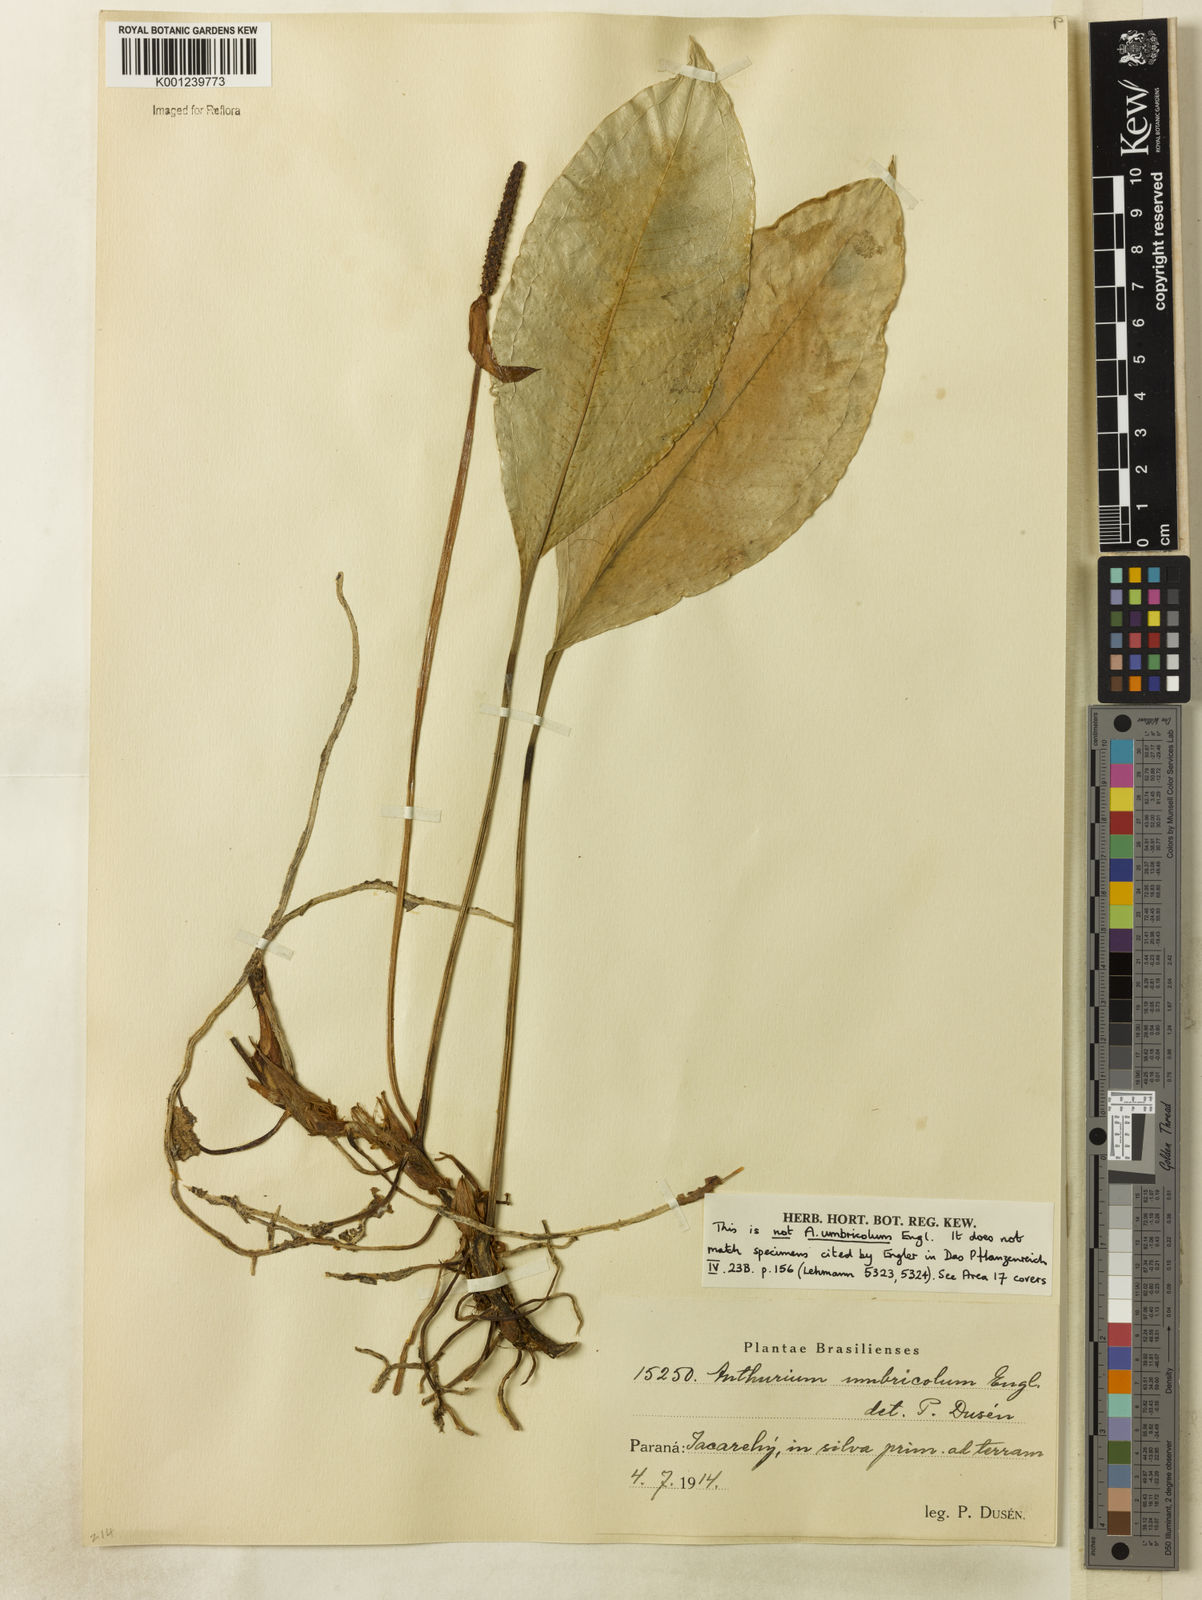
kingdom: Plantae
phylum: Tracheophyta
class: Liliopsida
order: Alismatales
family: Araceae
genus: Anthurium
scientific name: Anthurium
